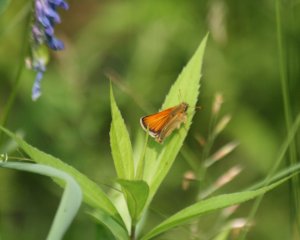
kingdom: Animalia
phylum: Arthropoda
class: Insecta
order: Lepidoptera
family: Hesperiidae
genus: Thymelicus
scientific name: Thymelicus lineola
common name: European Skipper
